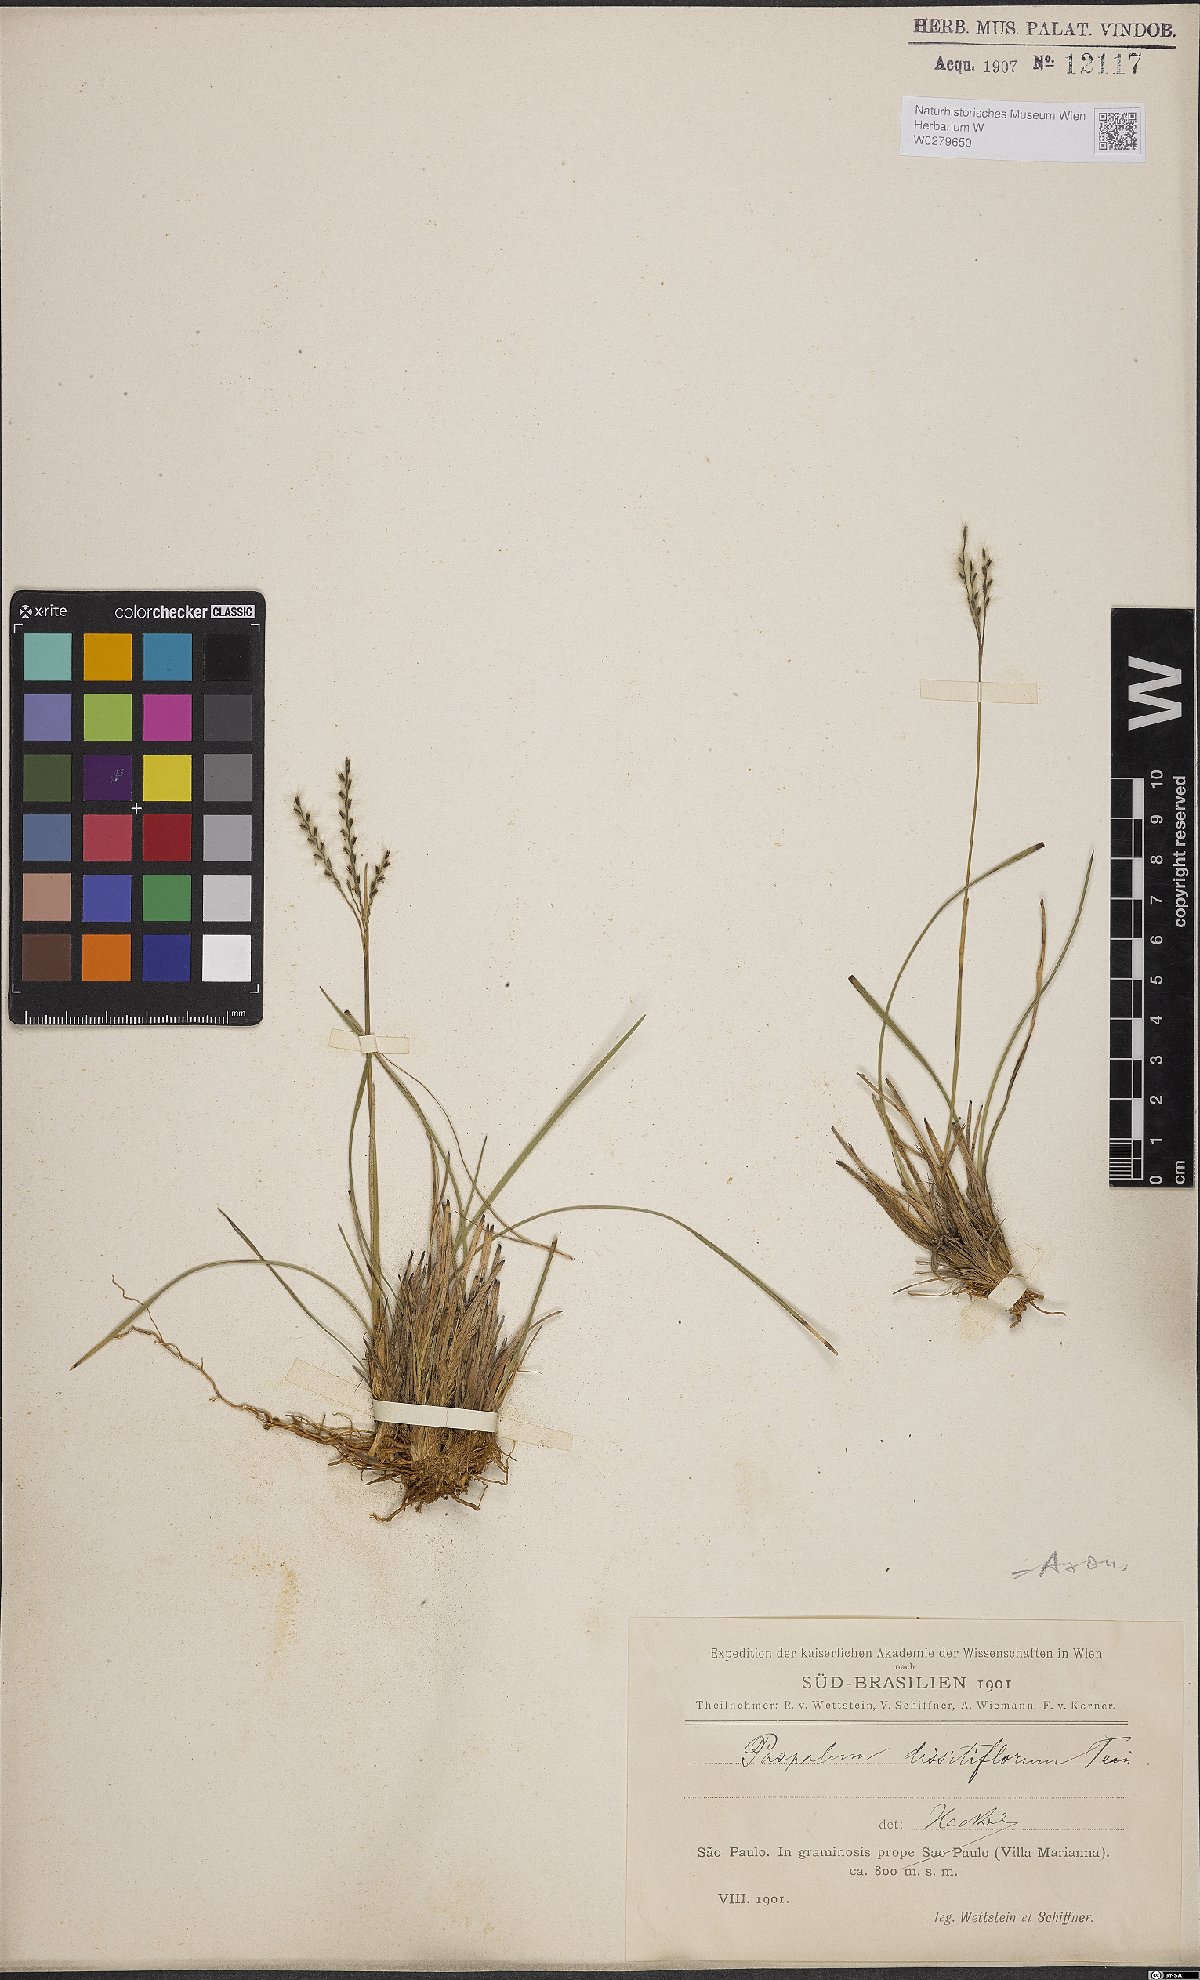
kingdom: Plantae
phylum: Tracheophyta
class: Liliopsida
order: Poales
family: Poaceae
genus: Axonopus
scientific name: Axonopus brasiliensis
